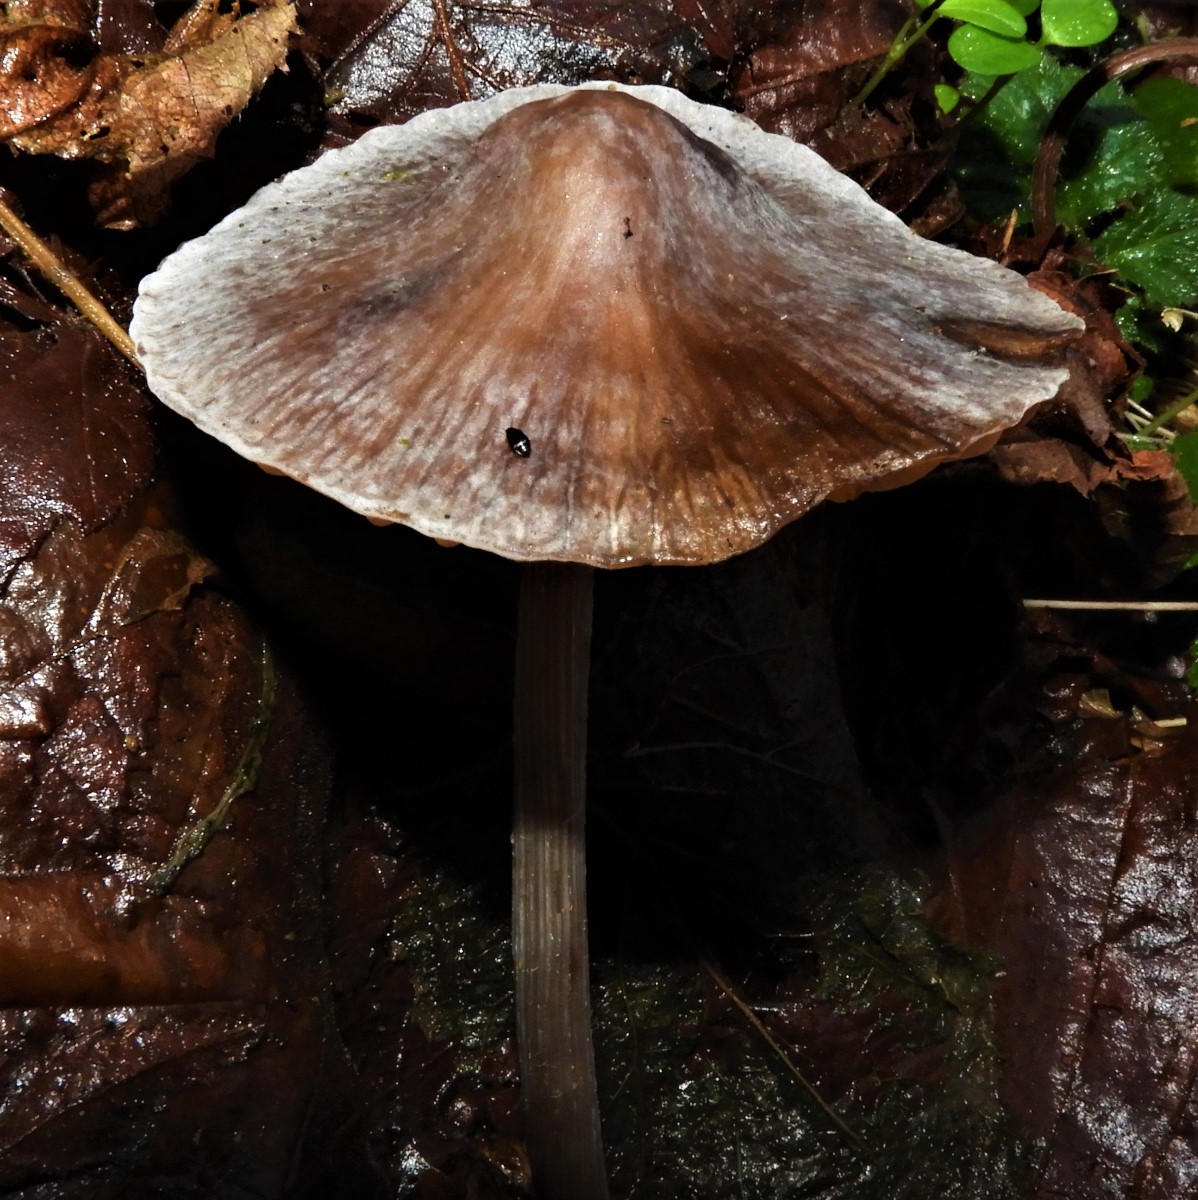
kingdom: Fungi
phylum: Basidiomycota
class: Agaricomycetes
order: Agaricales
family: Mycenaceae
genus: Mycena
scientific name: Mycena polygramma
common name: mangestribet huesvamp
